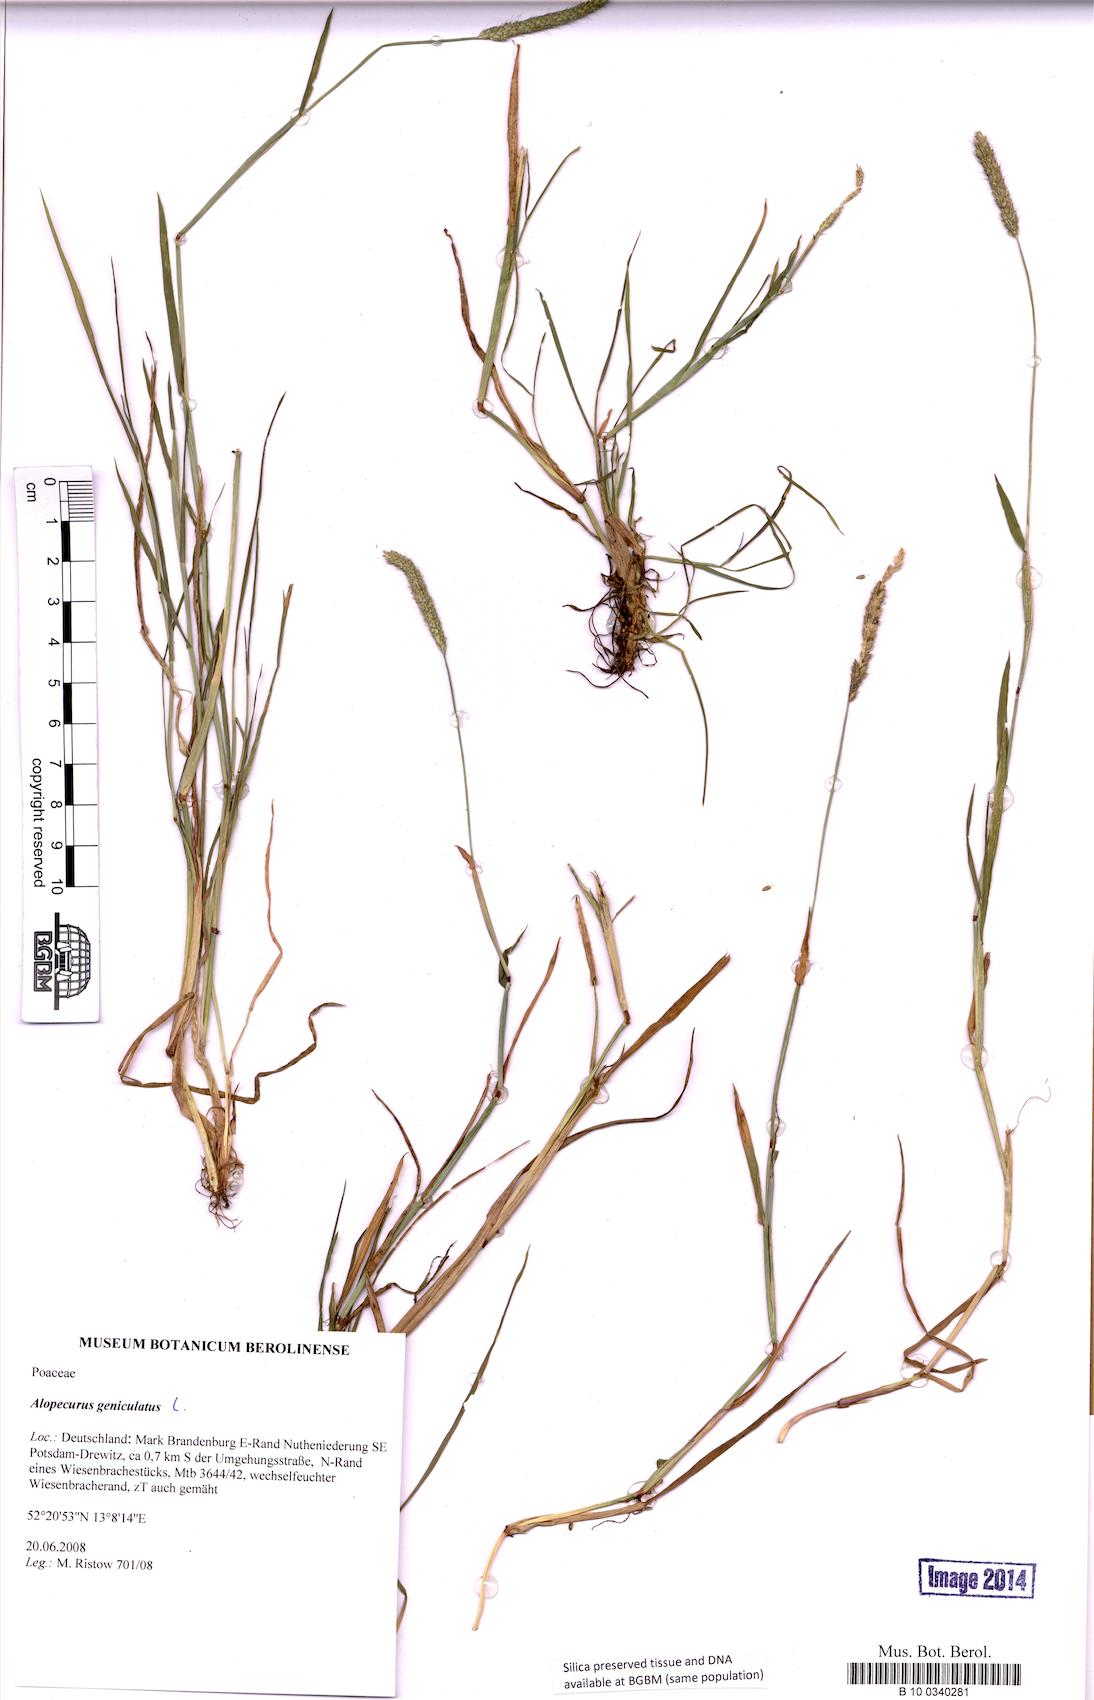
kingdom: Plantae
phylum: Tracheophyta
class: Liliopsida
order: Poales
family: Poaceae
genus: Alopecurus
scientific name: Alopecurus geniculatus
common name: Water foxtail
